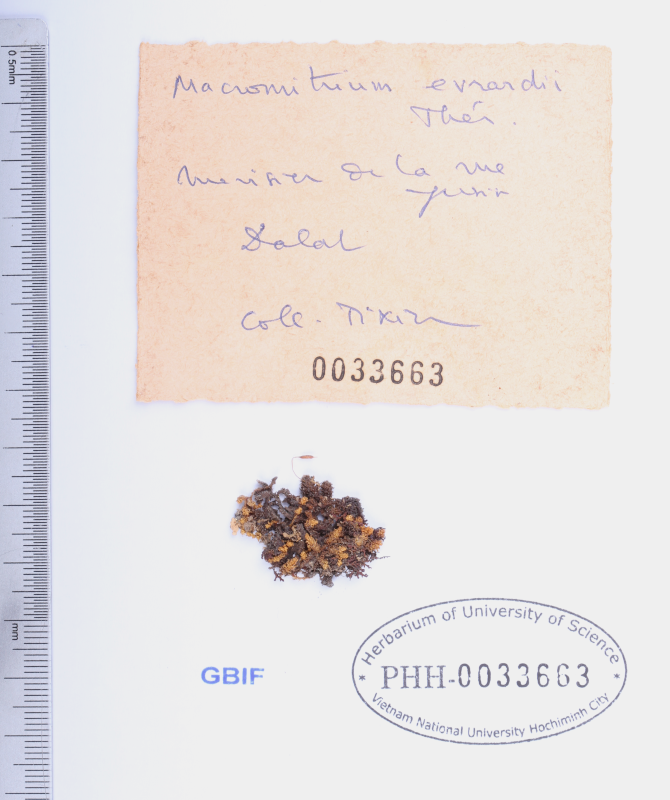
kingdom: Plantae
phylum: Bryophyta
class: Bryopsida
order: Orthotrichales
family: Orthotrichaceae
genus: Macromitrium
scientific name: Macromitrium evrardii
